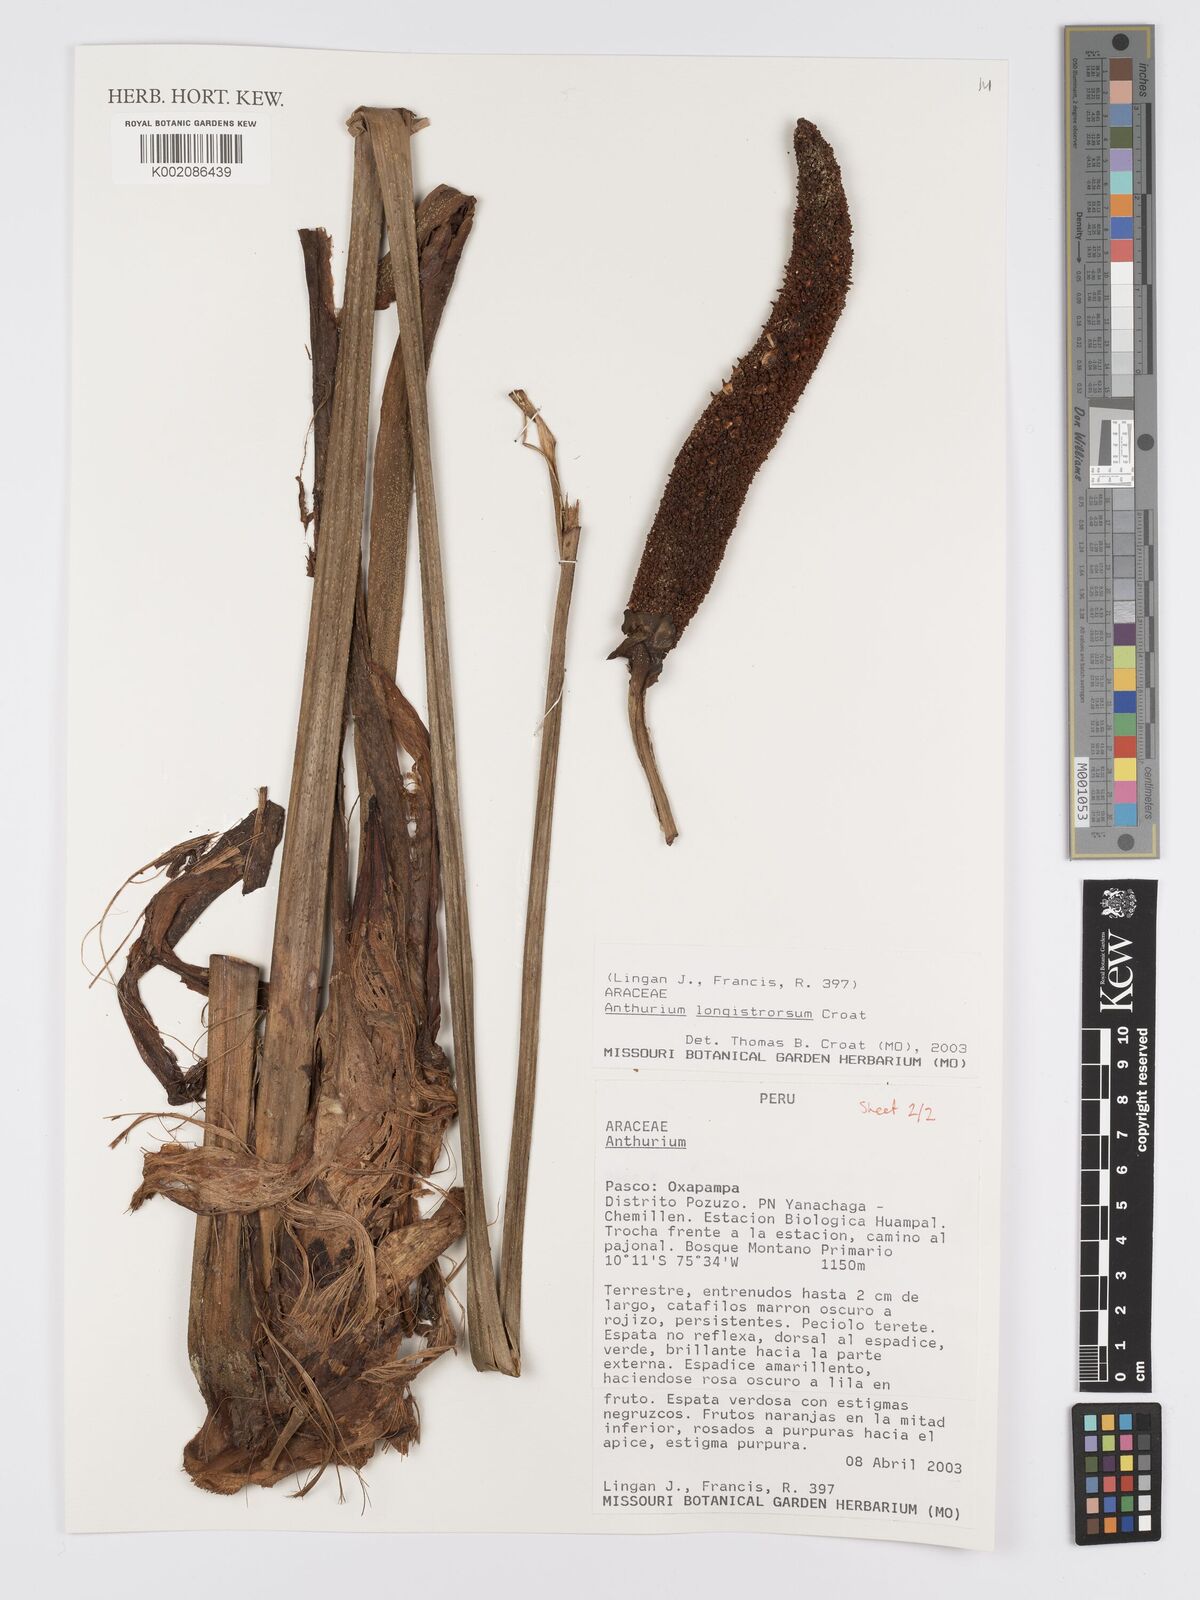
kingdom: Plantae
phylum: Tracheophyta
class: Liliopsida
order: Alismatales
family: Araceae
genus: Anthurium
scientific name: Anthurium
